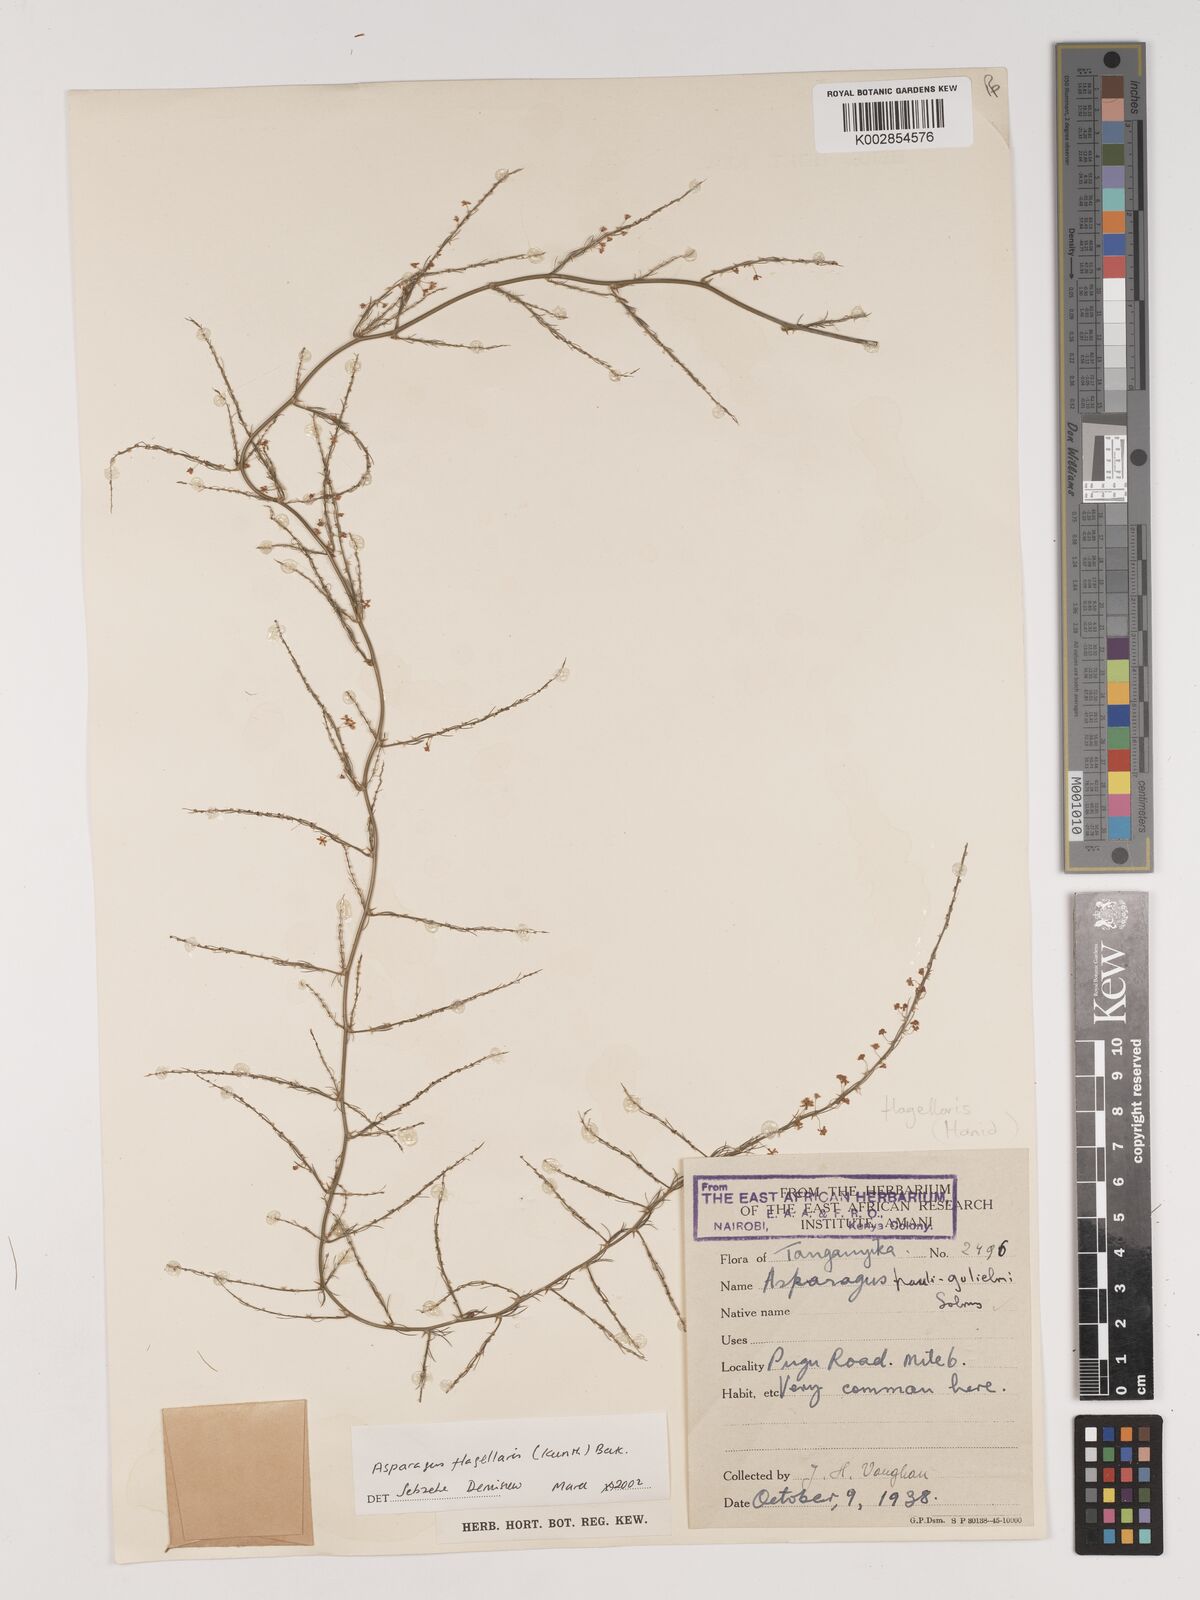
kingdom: Plantae
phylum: Tracheophyta
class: Liliopsida
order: Asparagales
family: Asparagaceae
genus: Asparagus
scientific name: Asparagus flagellaris
